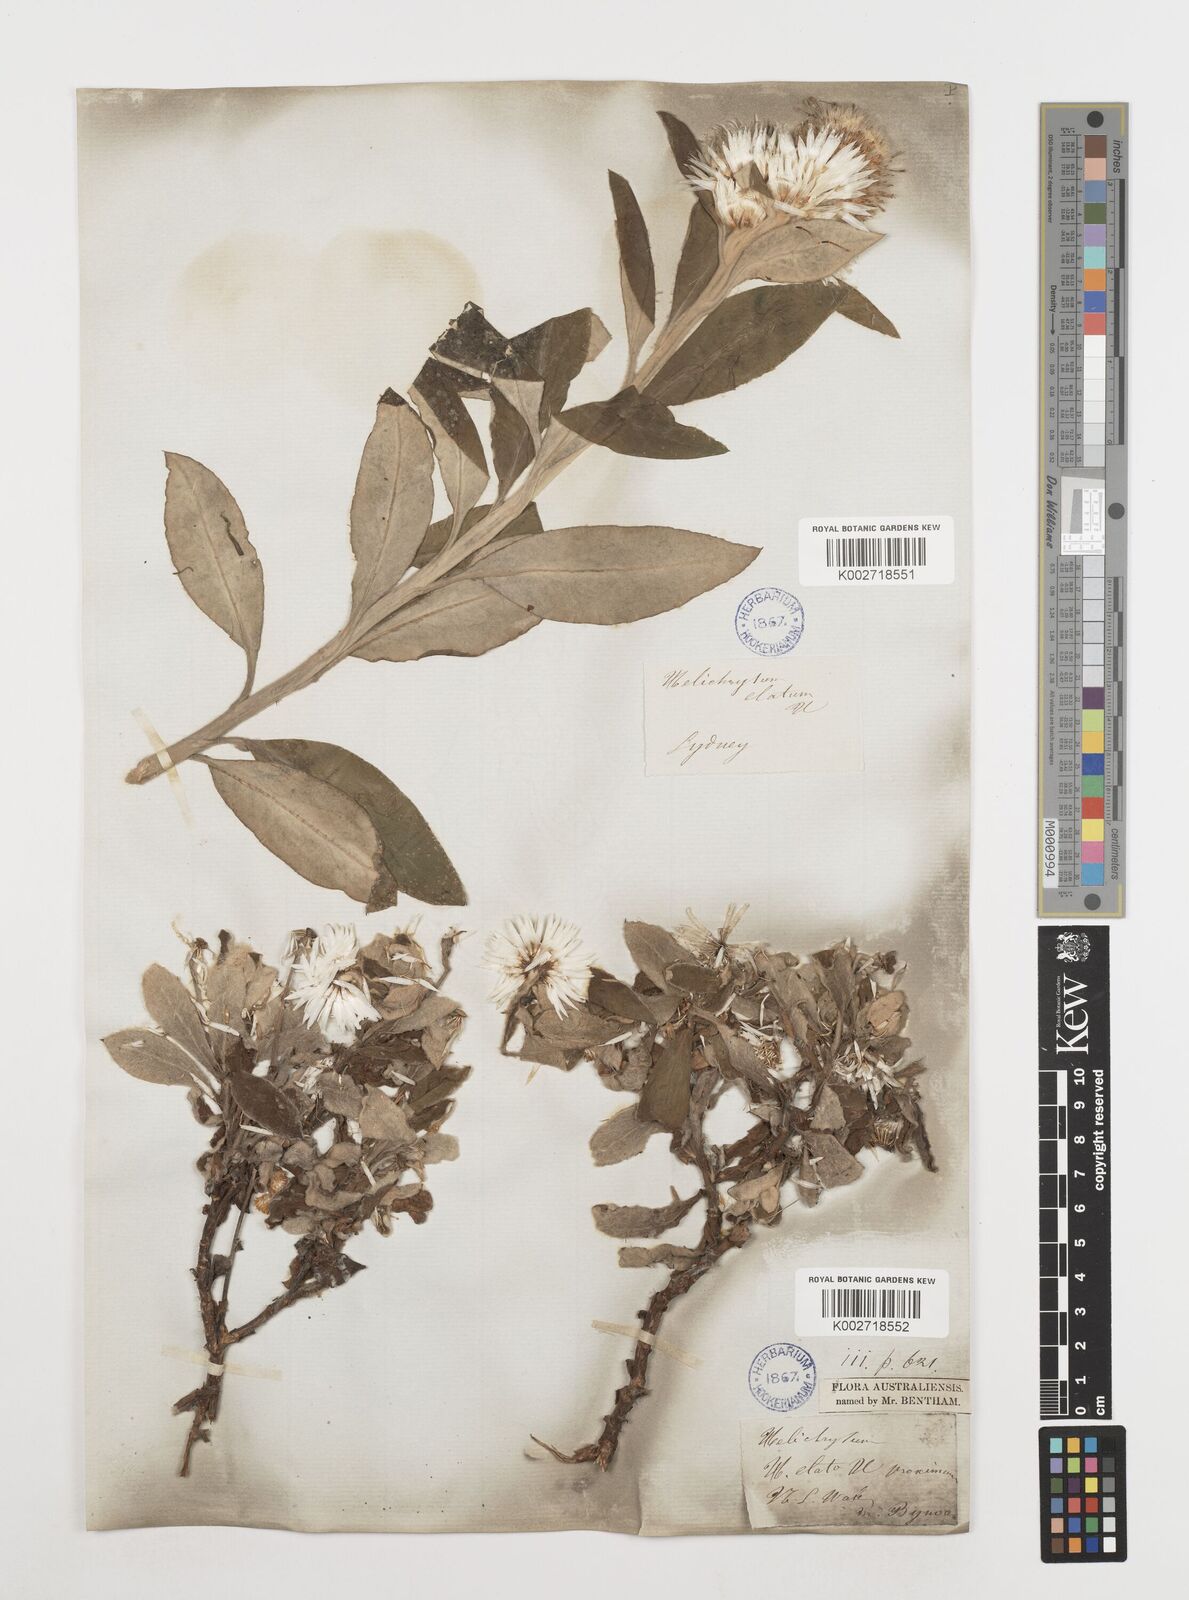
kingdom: Plantae
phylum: Tracheophyta
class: Magnoliopsida
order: Asterales
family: Asteraceae
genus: Leucozoma
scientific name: Leucozoma elatum
